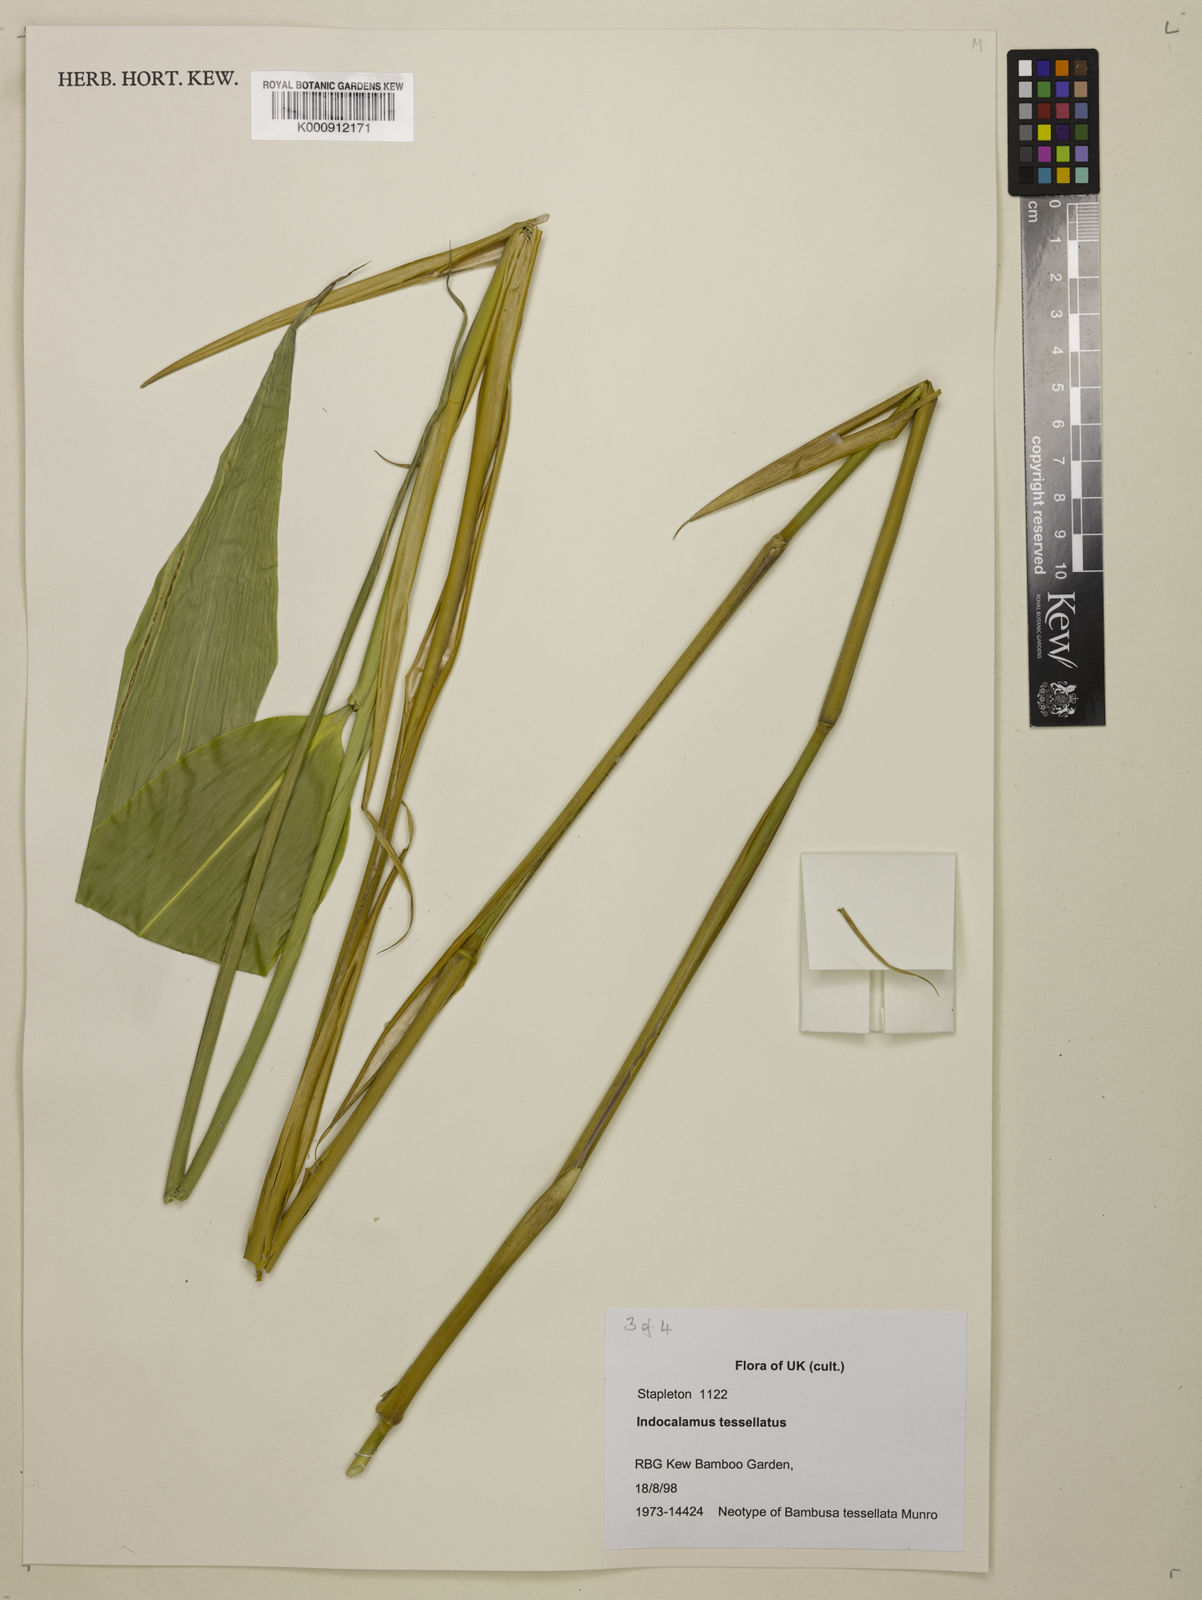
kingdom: Plantae
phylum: Tracheophyta
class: Liliopsida
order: Poales
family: Poaceae
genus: Indocalamus
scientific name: Indocalamus tessellatus
